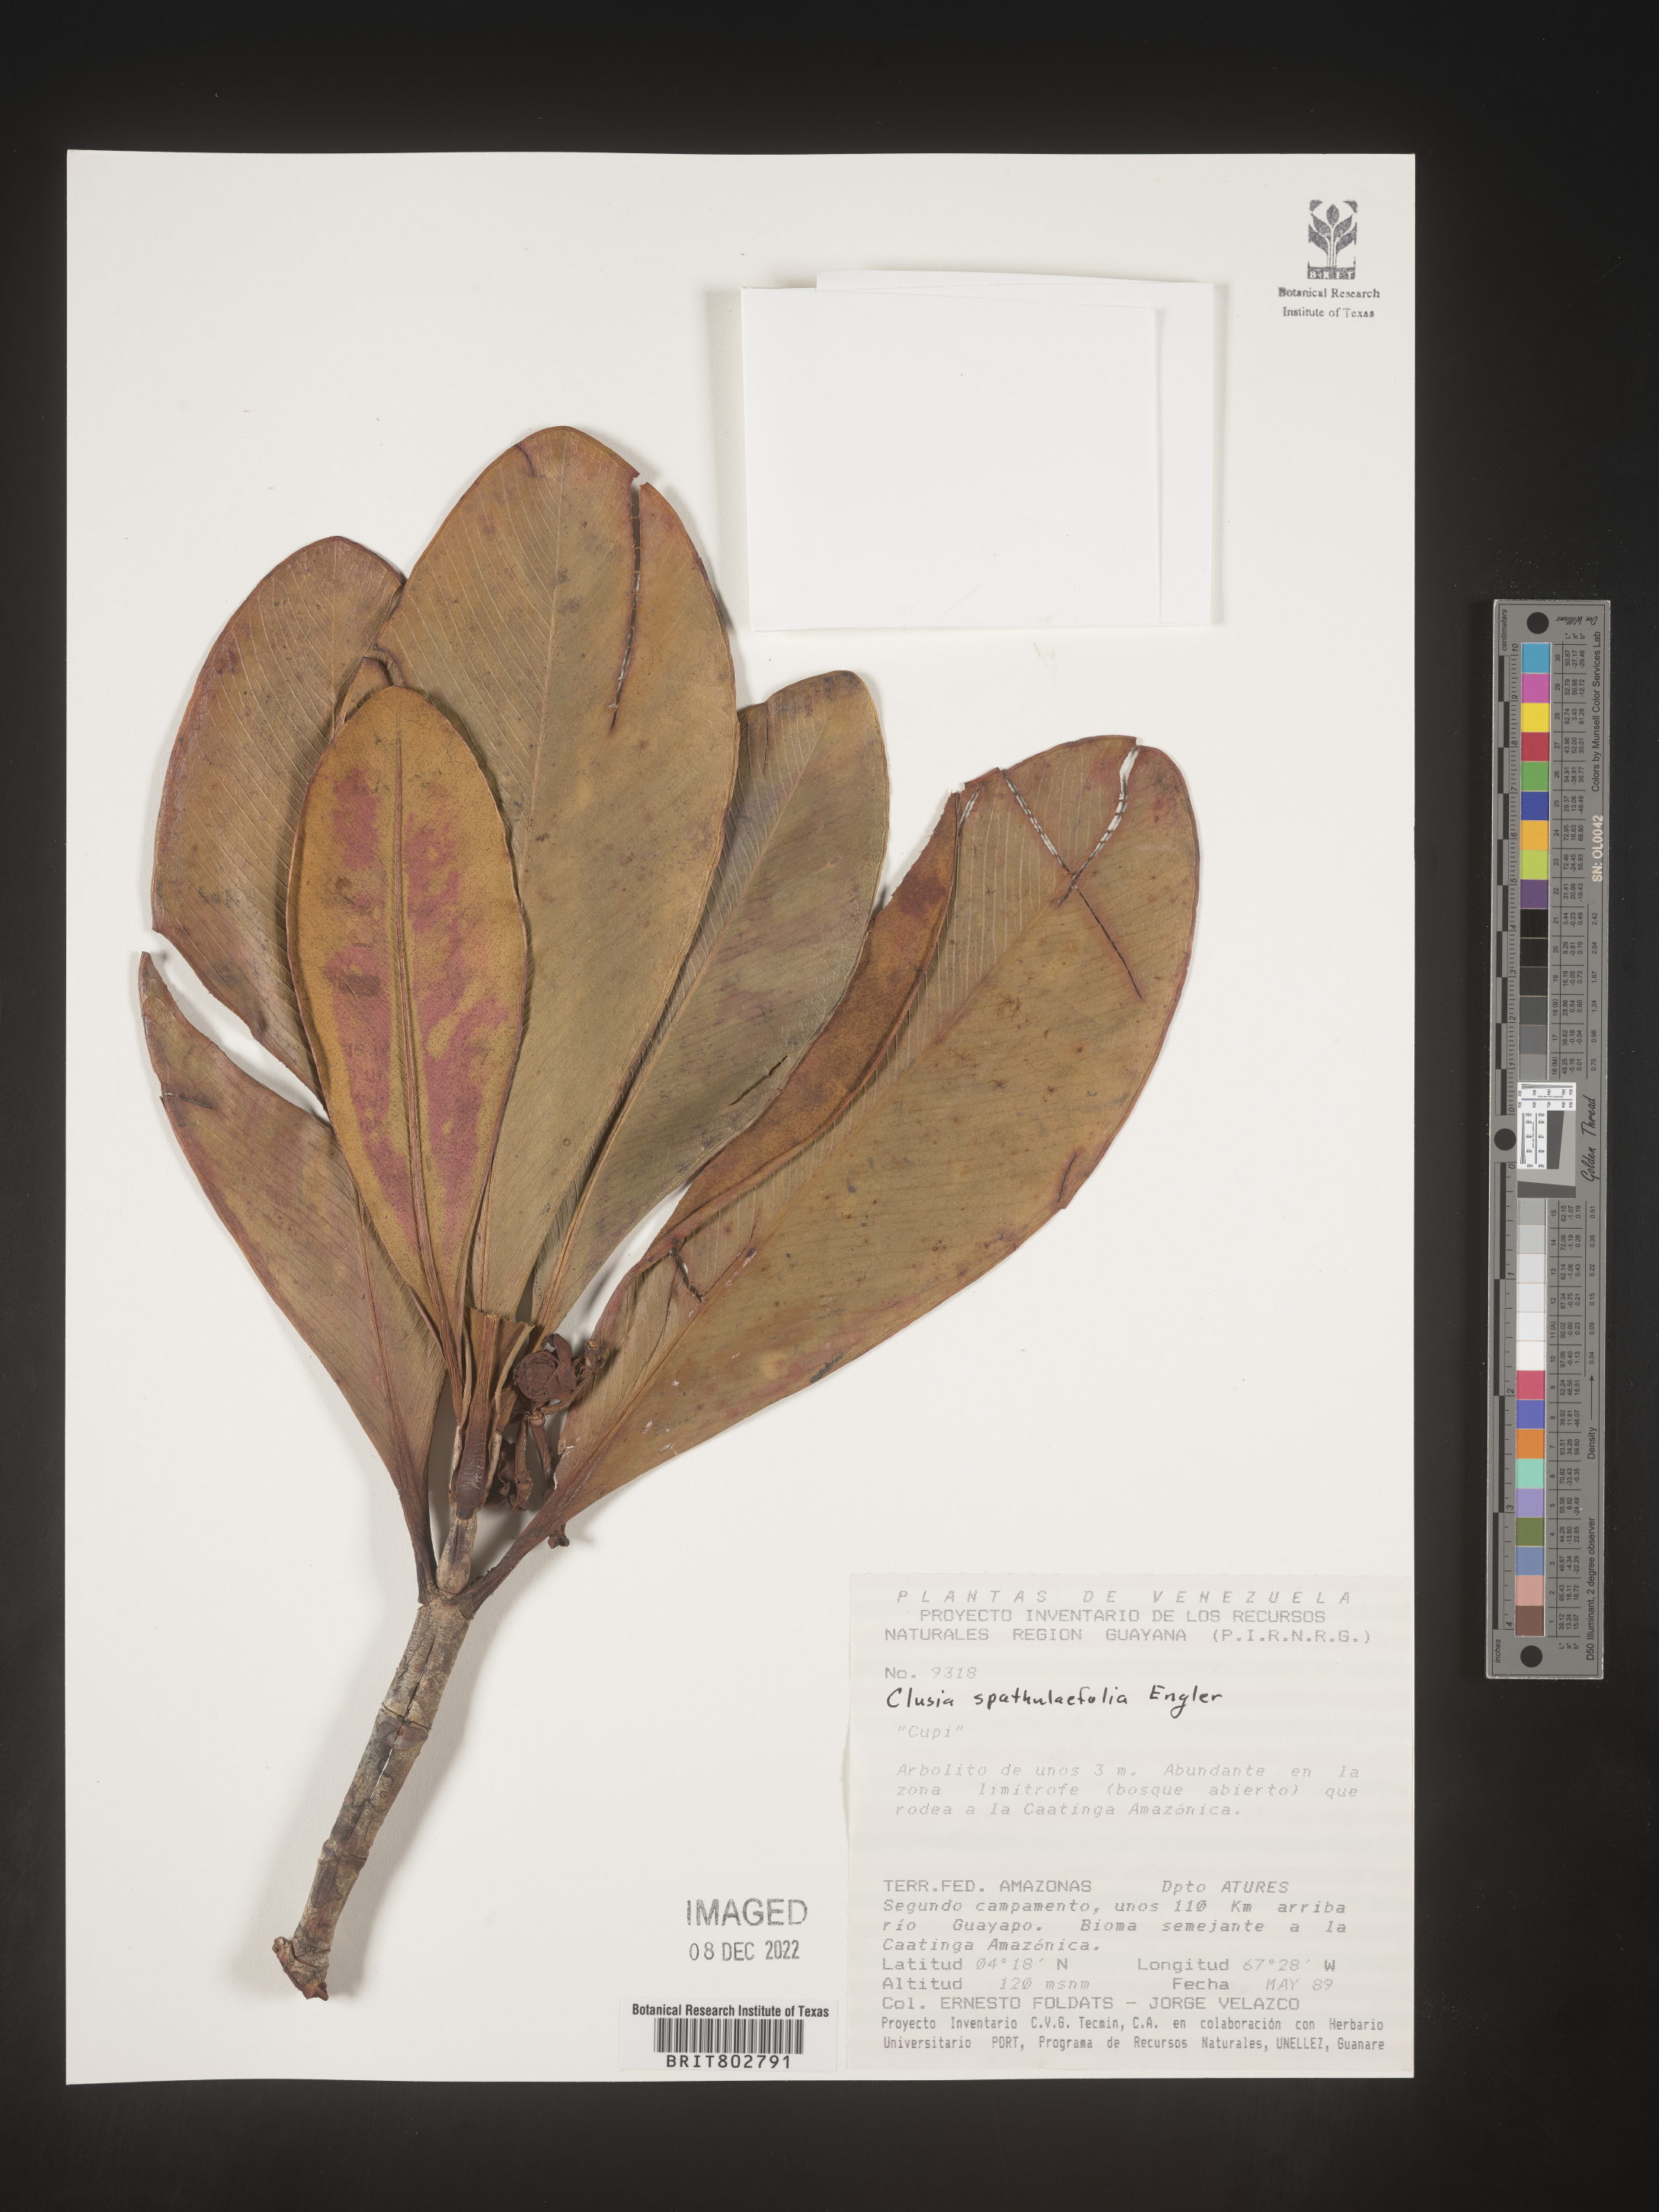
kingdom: Plantae
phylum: Tracheophyta
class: Magnoliopsida
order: Malpighiales
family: Clusiaceae
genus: Clusia
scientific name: Clusia spathulifolia
